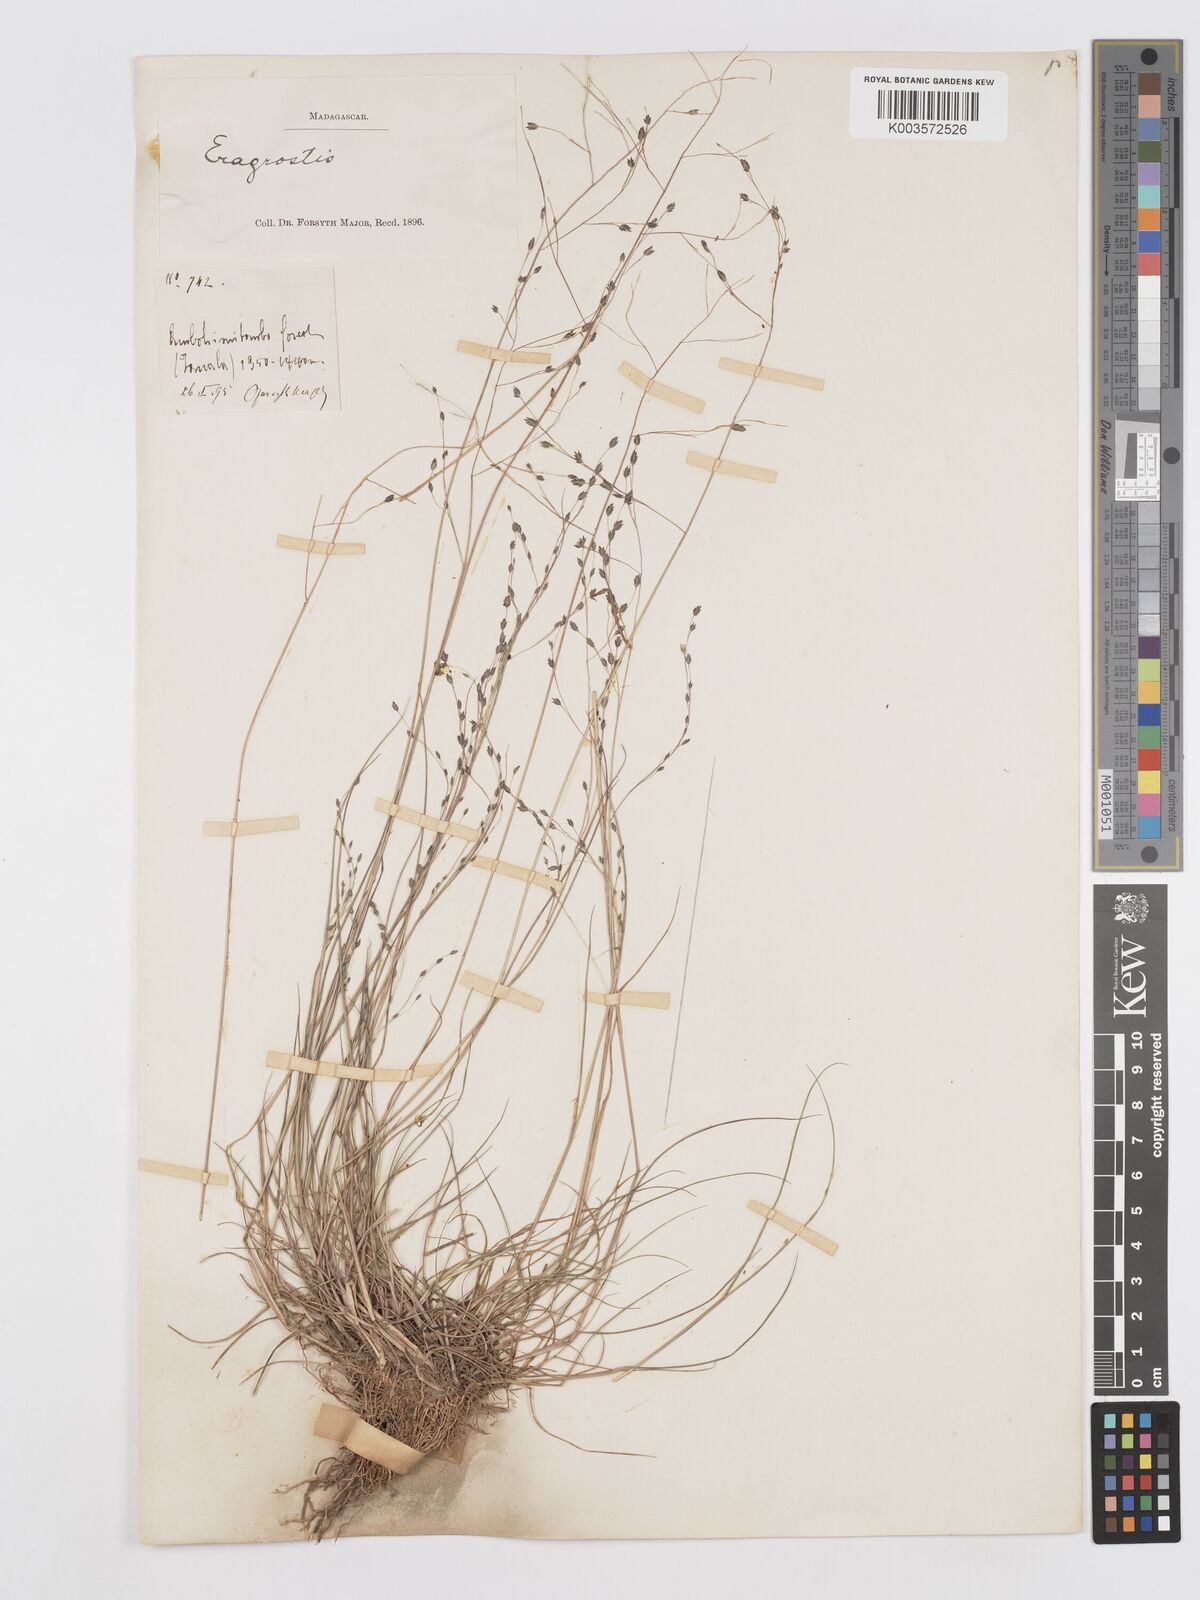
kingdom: Plantae
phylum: Tracheophyta
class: Liliopsida
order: Poales
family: Poaceae
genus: Eragrostis
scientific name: Eragrostis hildebrandtii
